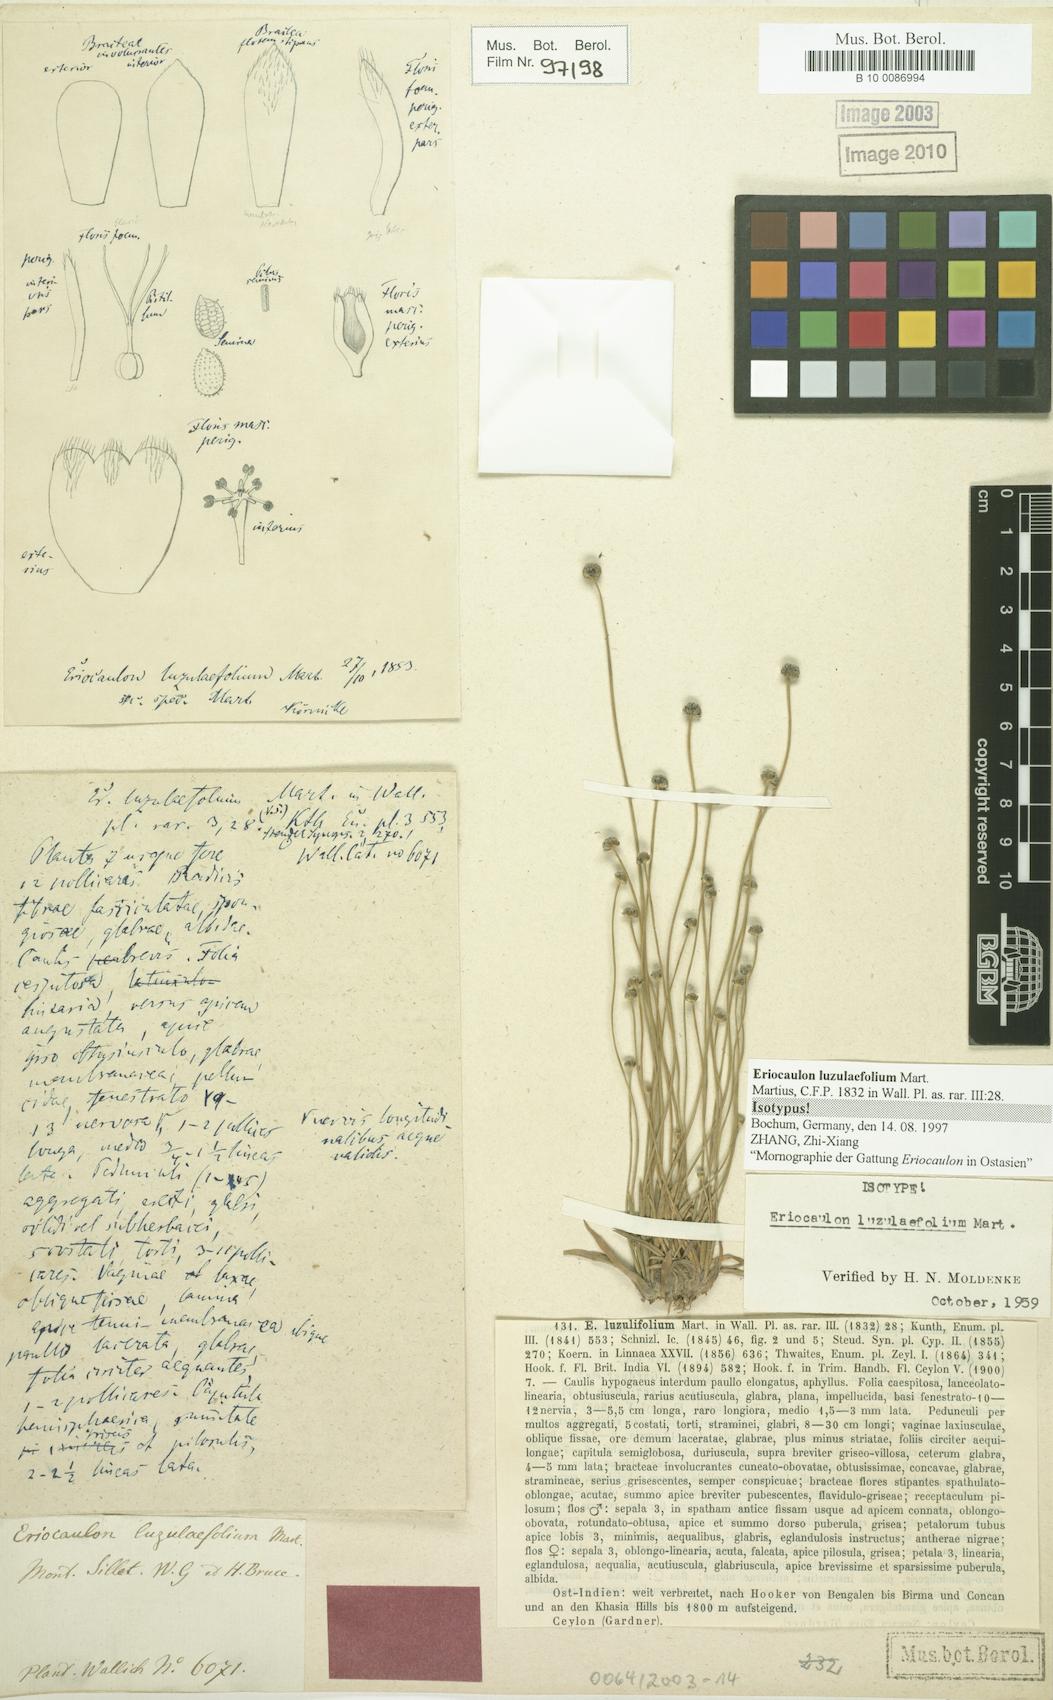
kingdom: Plantae
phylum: Tracheophyta
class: Liliopsida
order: Poales
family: Eriocaulaceae
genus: Eriocaulon
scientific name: Eriocaulon nepalense
